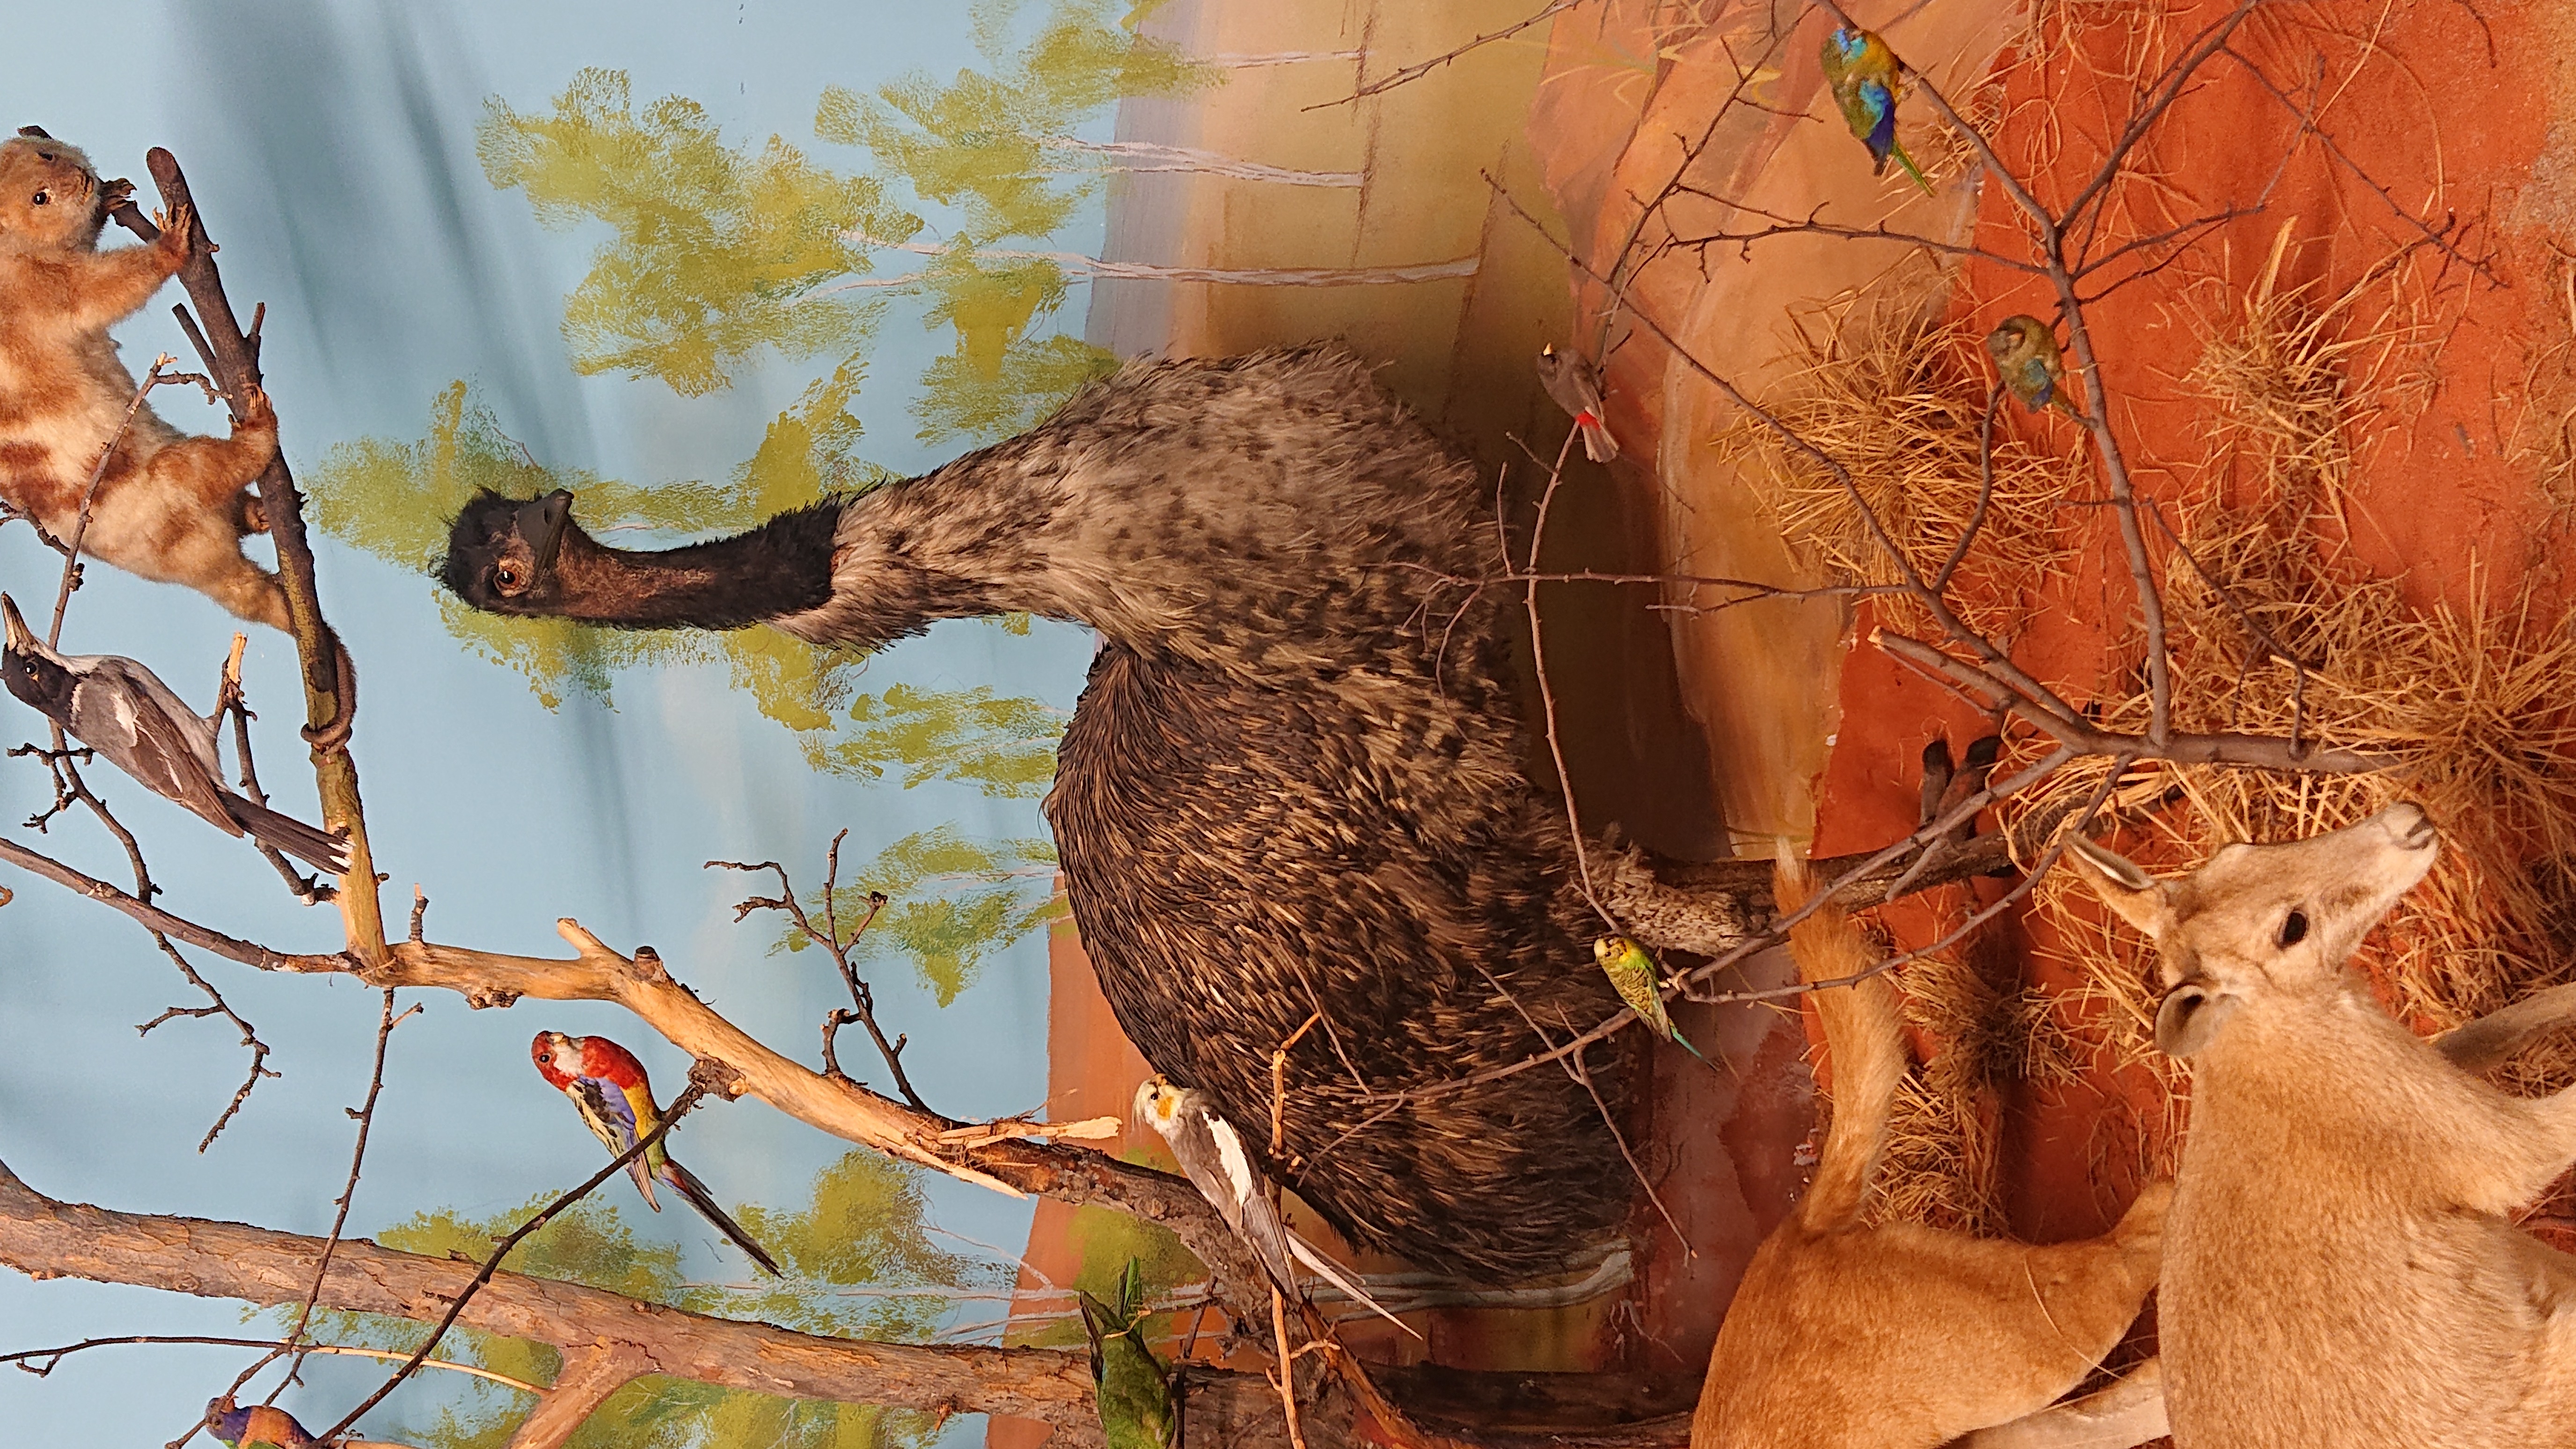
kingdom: Animalia
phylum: Chordata
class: Aves
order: Casuariiformes
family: Dromaiidae
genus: Dromaius
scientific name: Dromaius novaehollandiae
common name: Emu
